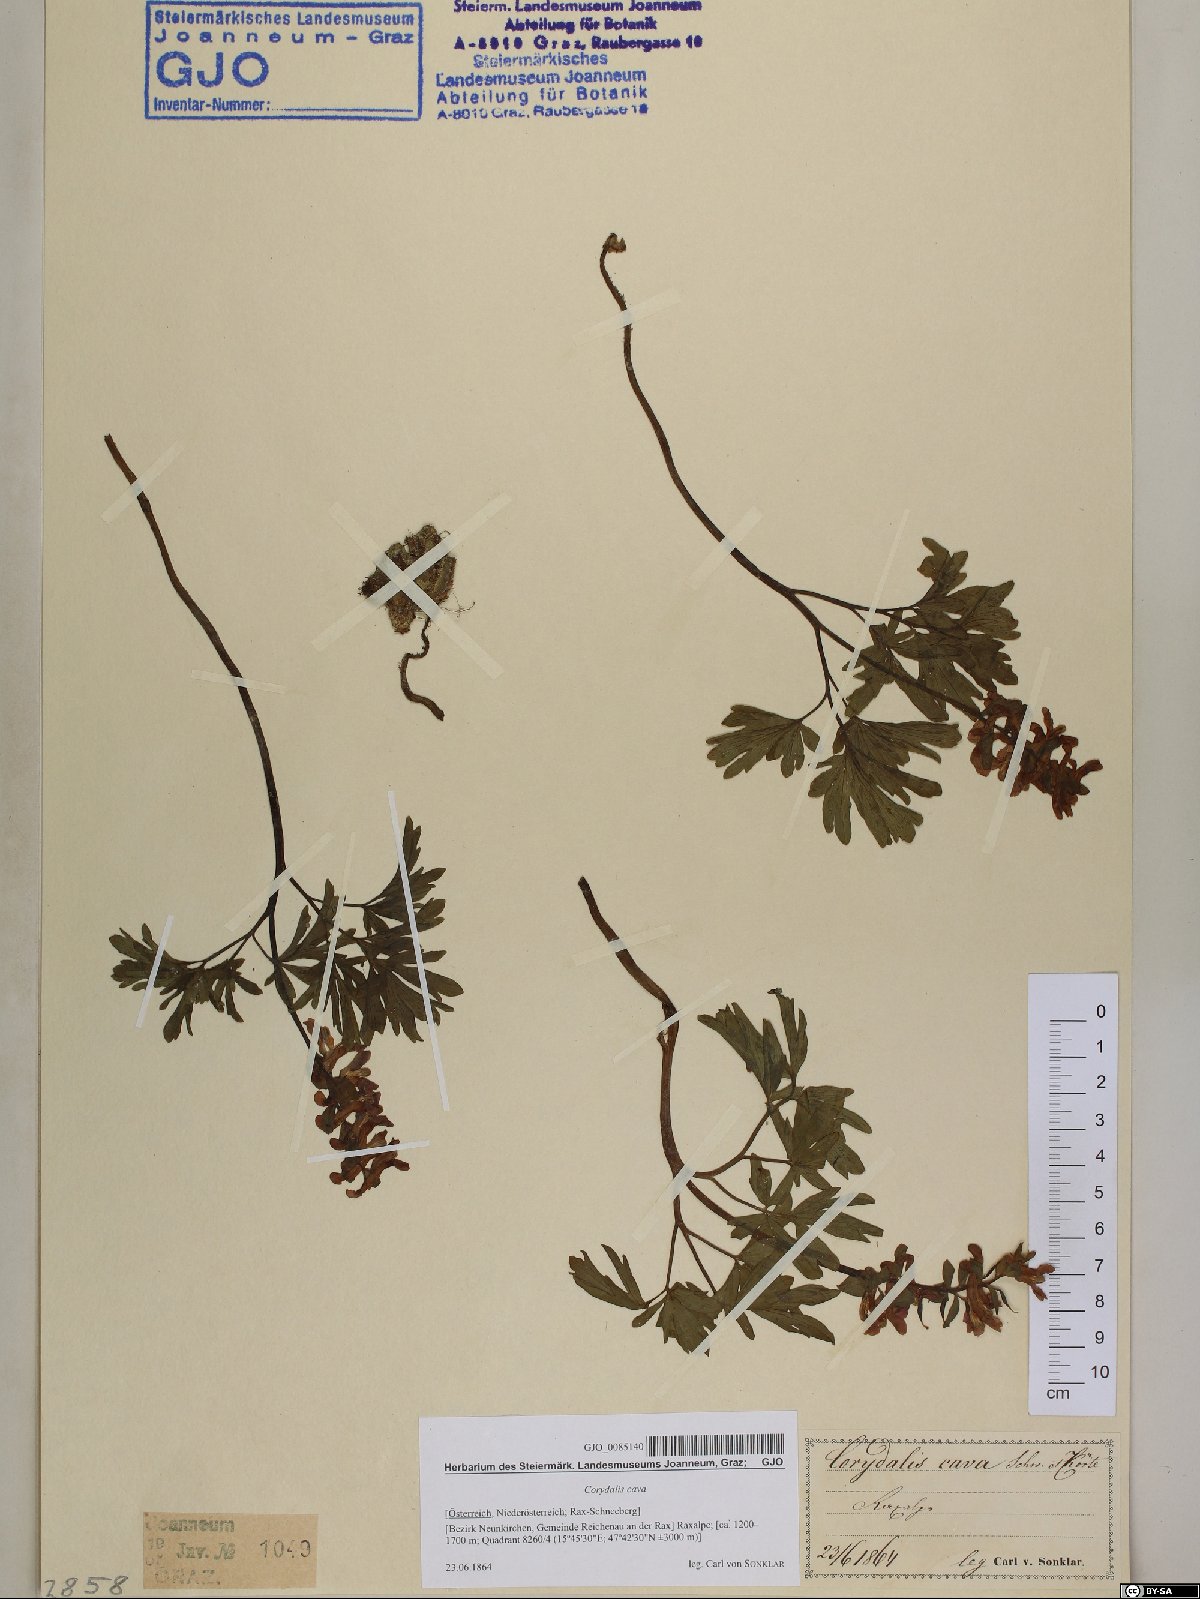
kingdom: Plantae
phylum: Tracheophyta
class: Magnoliopsida
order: Ranunculales
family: Papaveraceae
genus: Corydalis
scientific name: Corydalis cava
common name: Hollowroot
